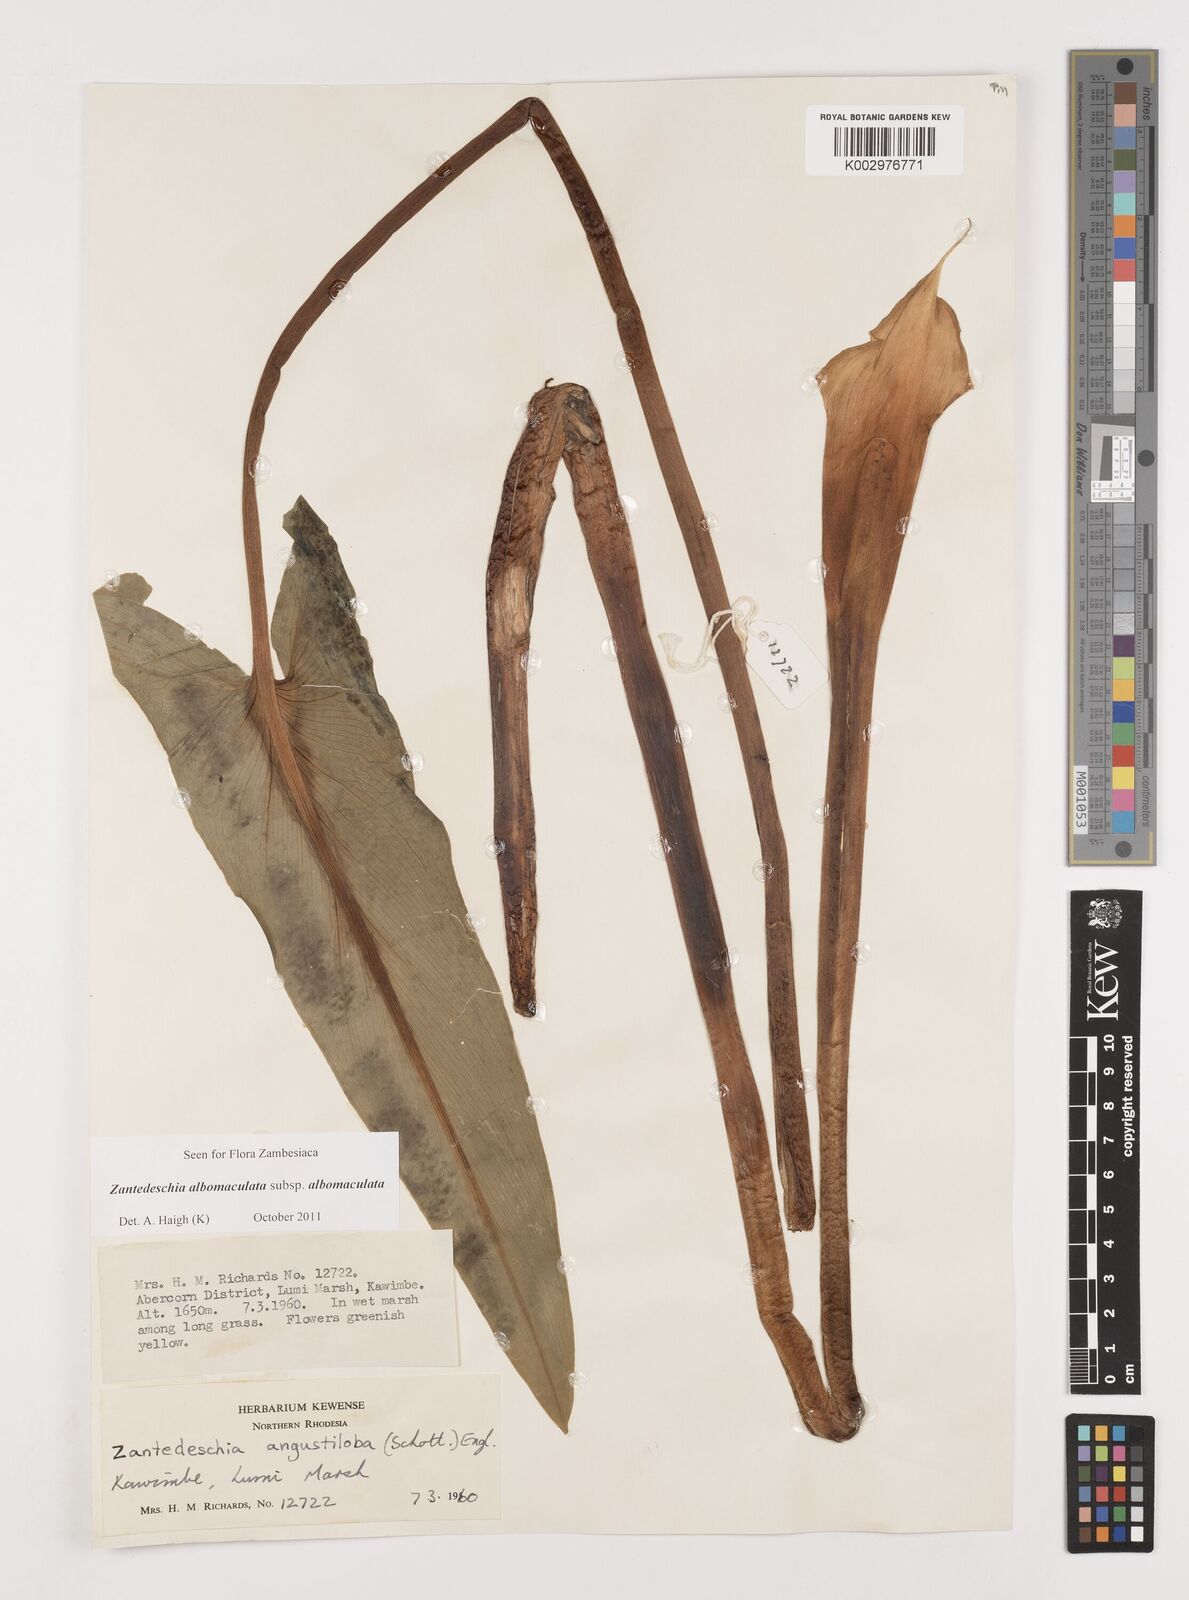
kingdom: Plantae
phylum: Tracheophyta
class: Liliopsida
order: Alismatales
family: Araceae
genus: Zantedeschia
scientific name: Zantedeschia albomaculata
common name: Spotted calla lily
